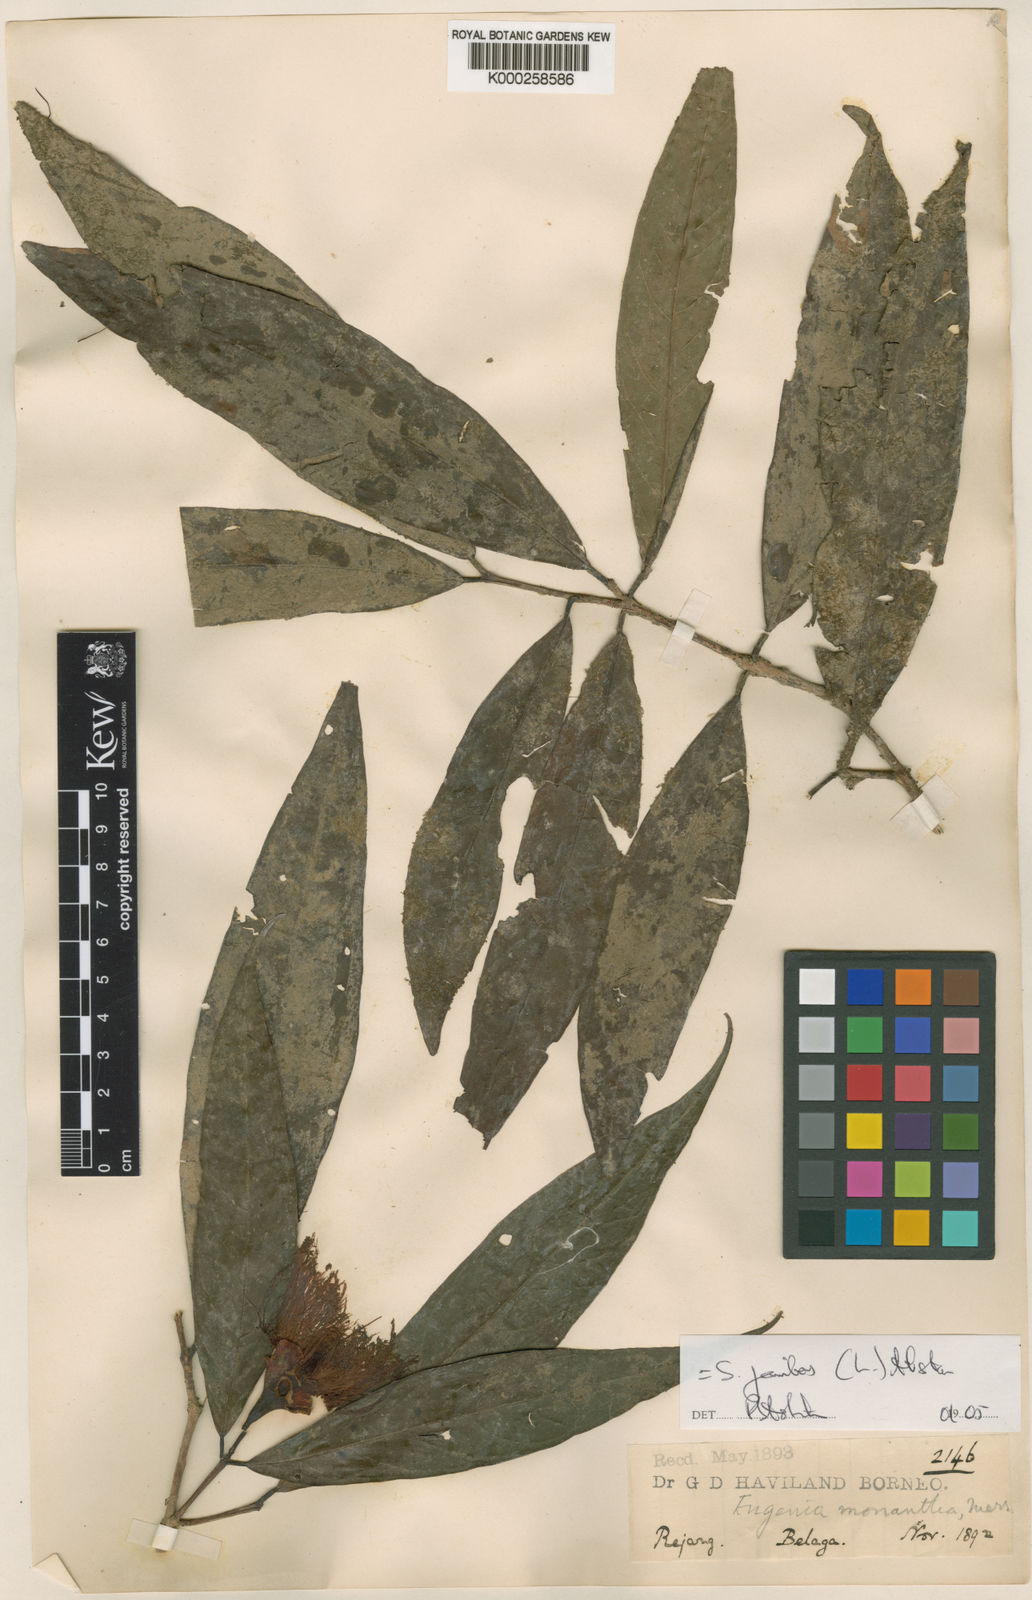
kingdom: Plantae
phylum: Tracheophyta
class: Magnoliopsida
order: Myrtales
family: Myrtaceae
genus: Syzygium
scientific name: Syzygium jambos
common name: Malabar plum
